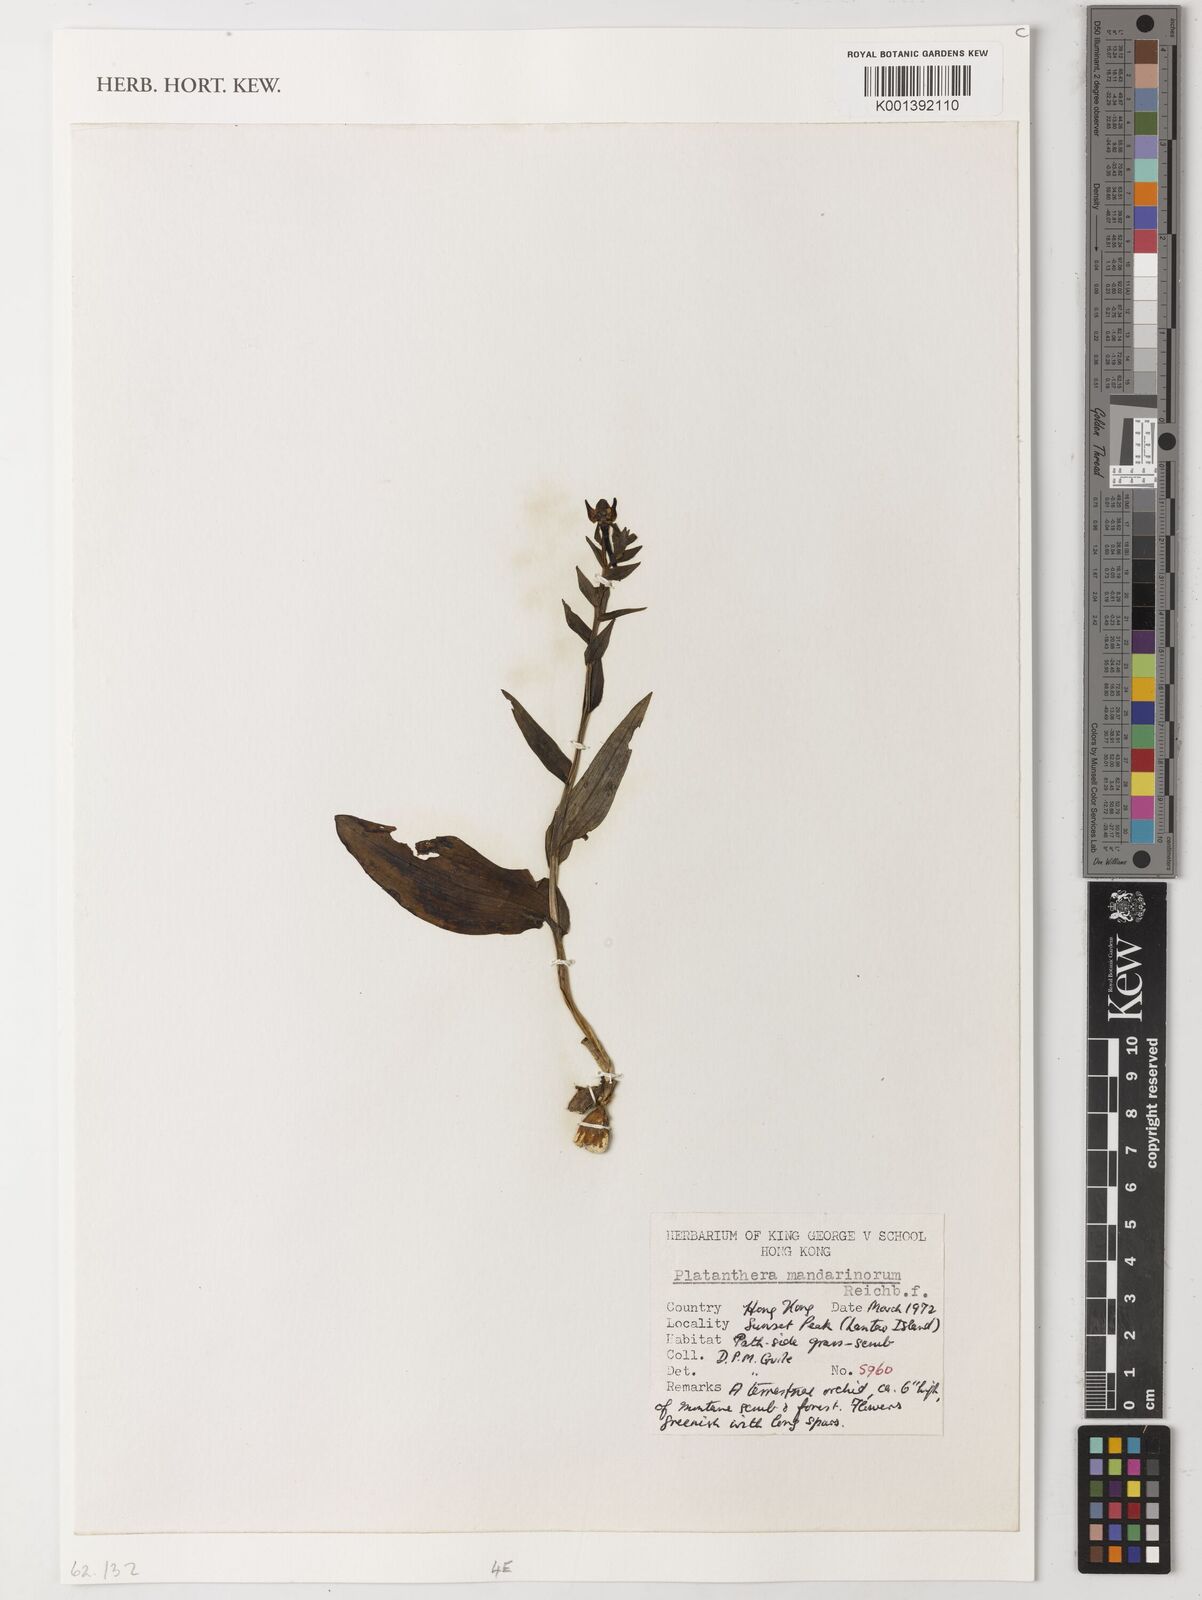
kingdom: Plantae
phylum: Tracheophyta
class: Liliopsida
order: Asparagales
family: Orchidaceae
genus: Platanthera
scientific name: Platanthera mandarinorum
